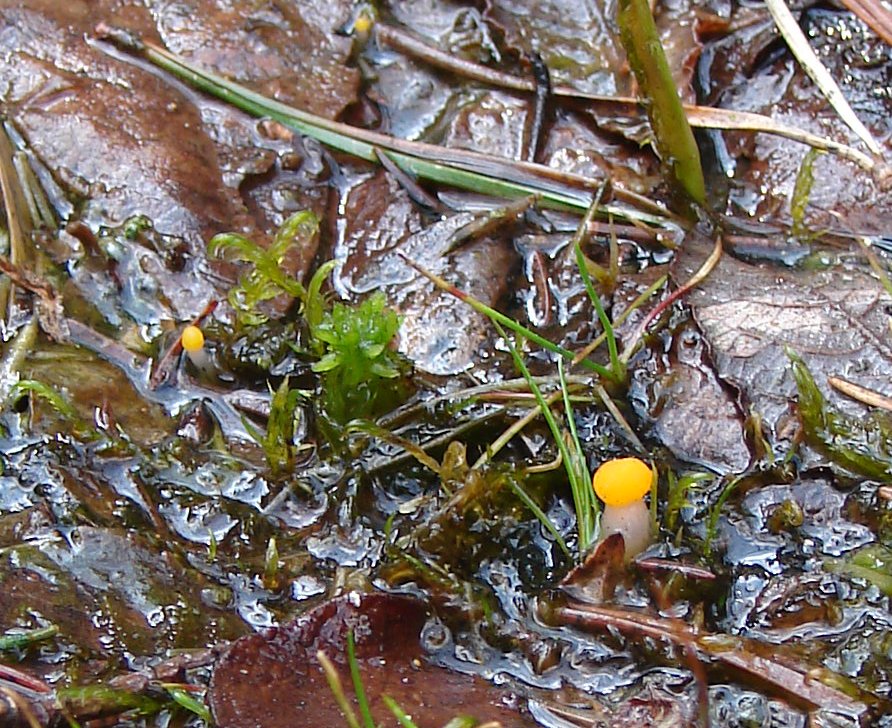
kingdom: Fungi
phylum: Ascomycota
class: Leotiomycetes
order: Helotiales
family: Cenangiaceae
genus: Mitrula
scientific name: Mitrula paludosa
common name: gul nøkketunge
